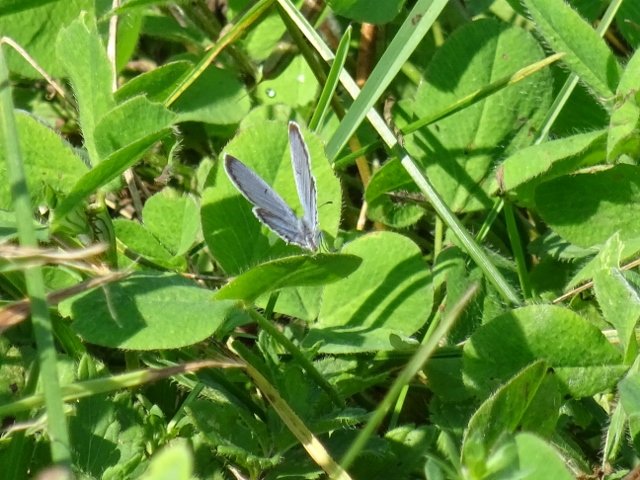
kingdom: Animalia
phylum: Arthropoda
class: Insecta
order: Lepidoptera
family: Lycaenidae
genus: Elkalyce
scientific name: Elkalyce comyntas
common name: Eastern Tailed-Blue
